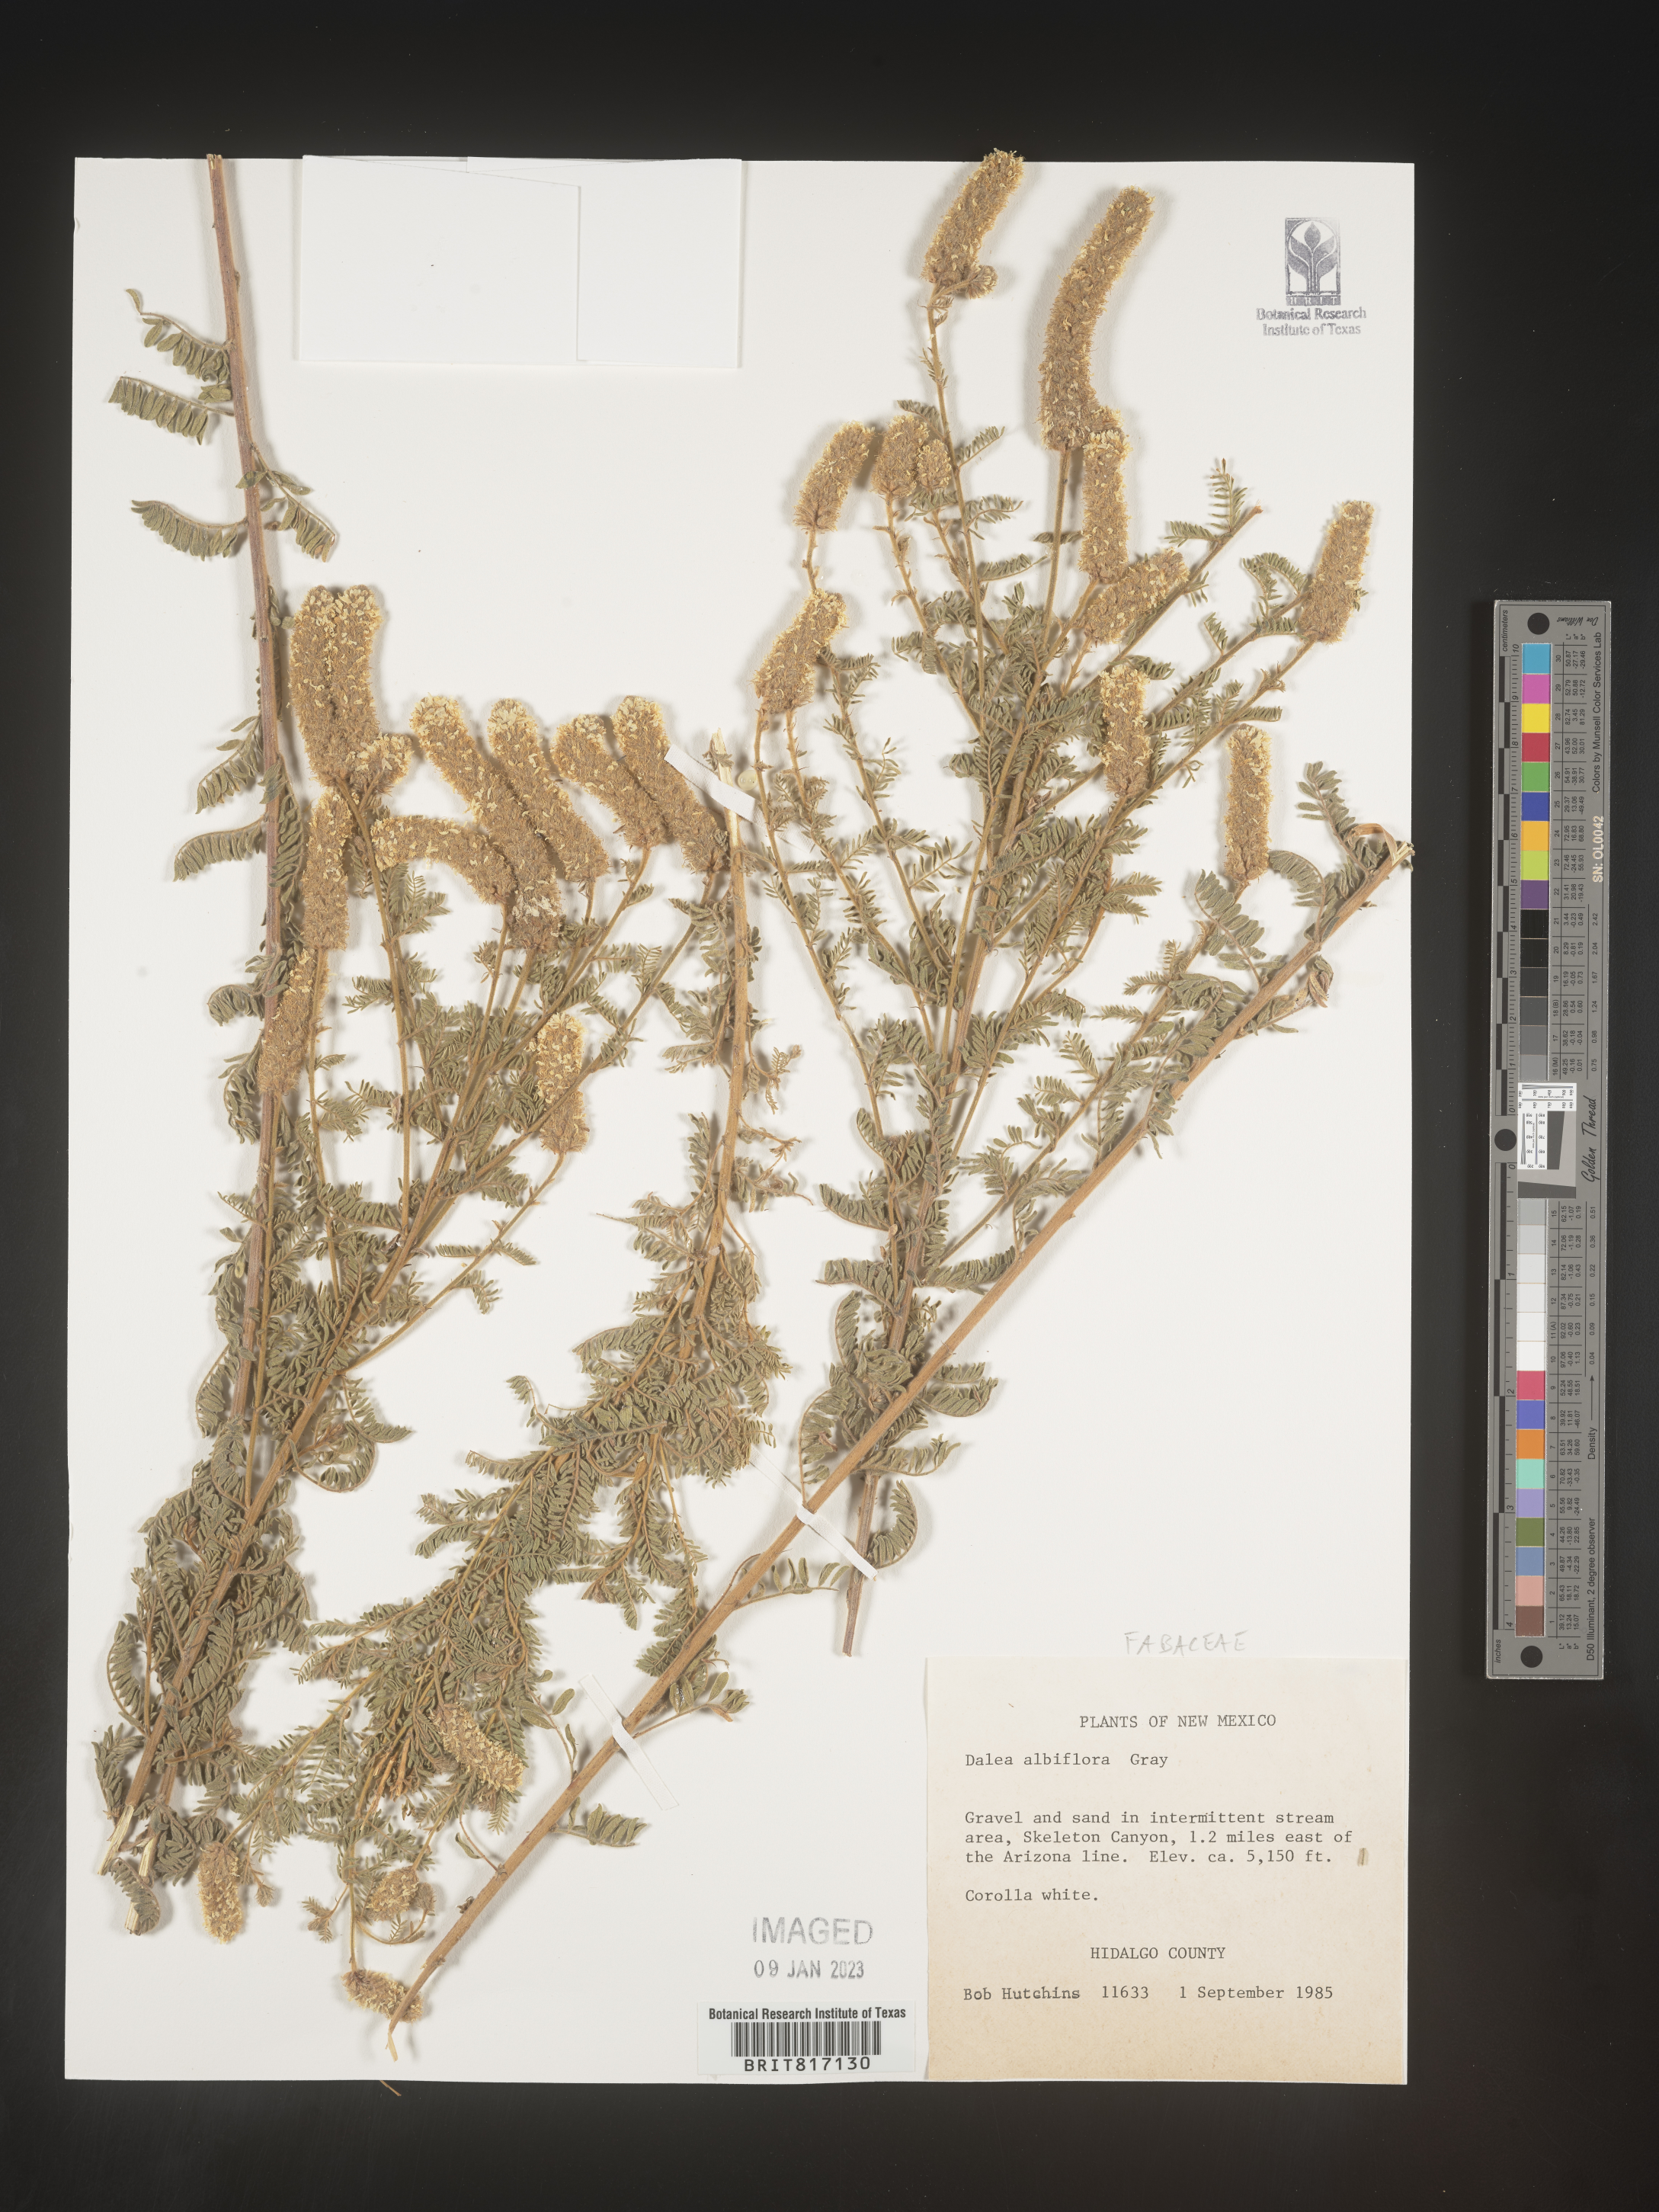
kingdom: Plantae
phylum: Tracheophyta
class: Magnoliopsida
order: Fabales
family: Fabaceae
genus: Dalea
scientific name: Dalea
